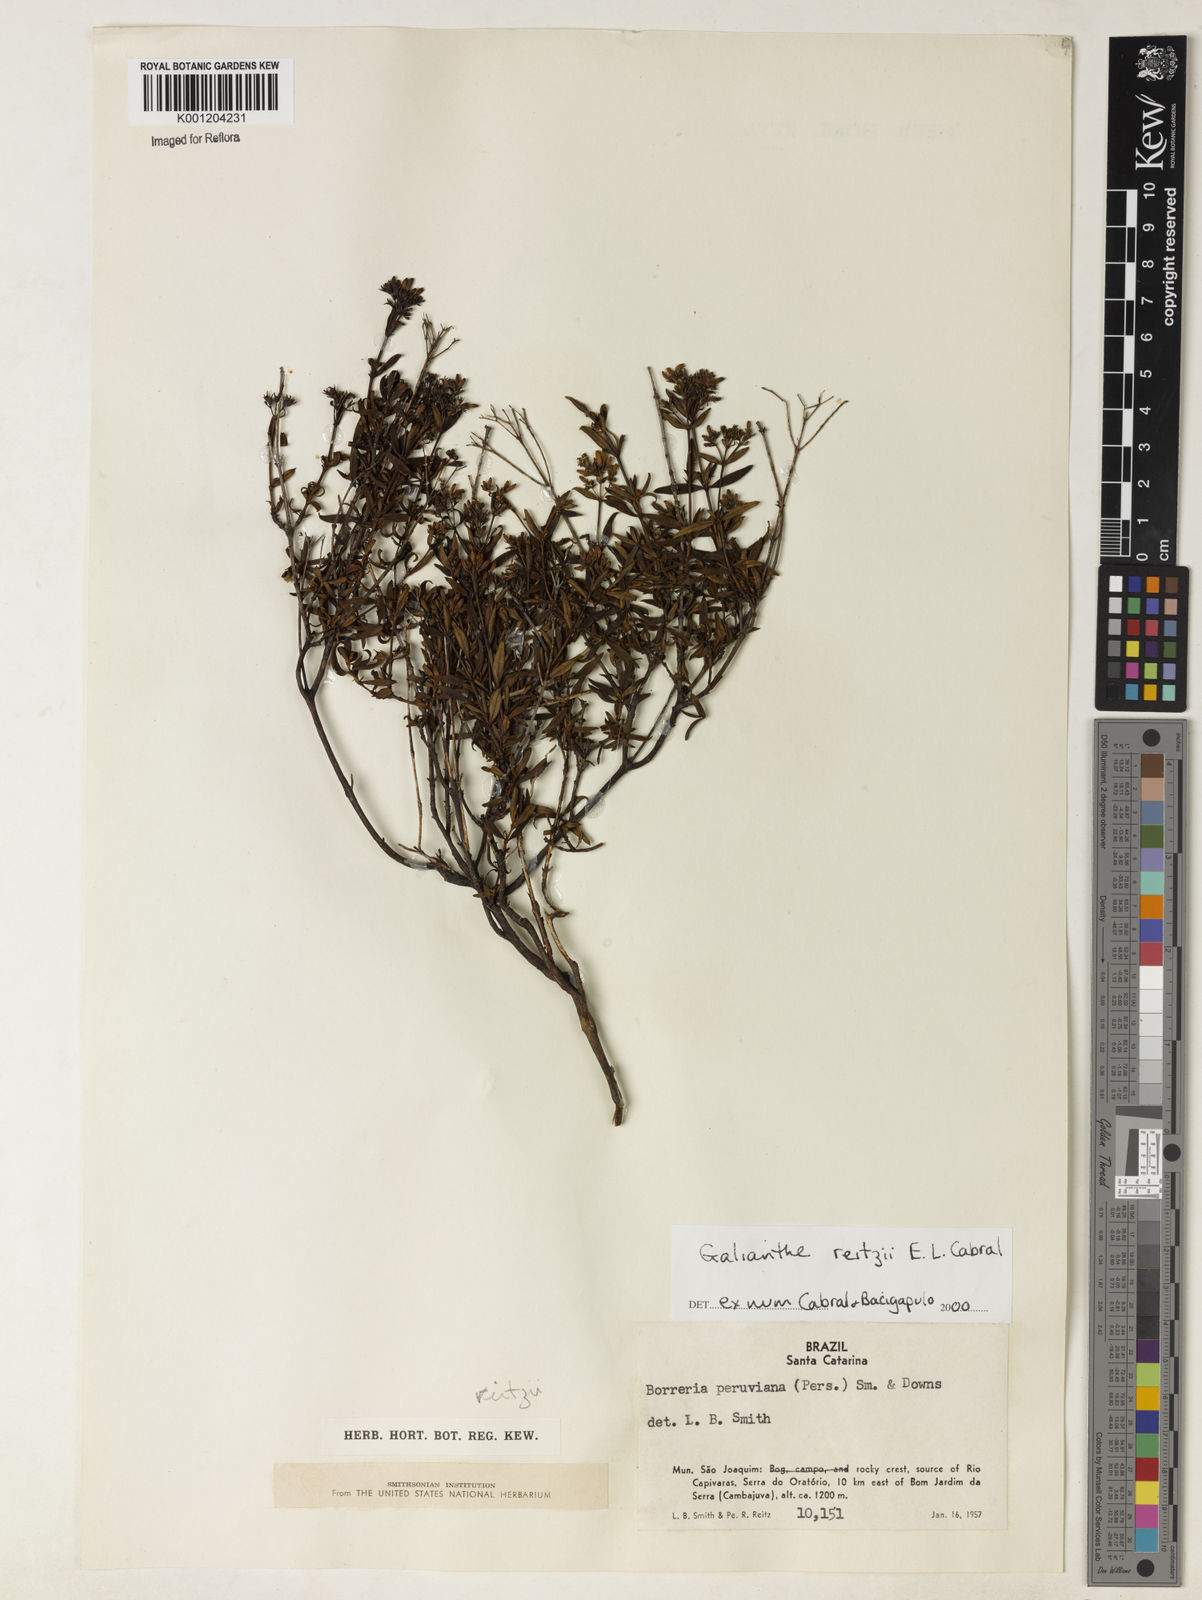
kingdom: Plantae
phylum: Tracheophyta
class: Magnoliopsida
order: Gentianales
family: Rubiaceae
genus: Galianthe
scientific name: Galianthe reitzii
